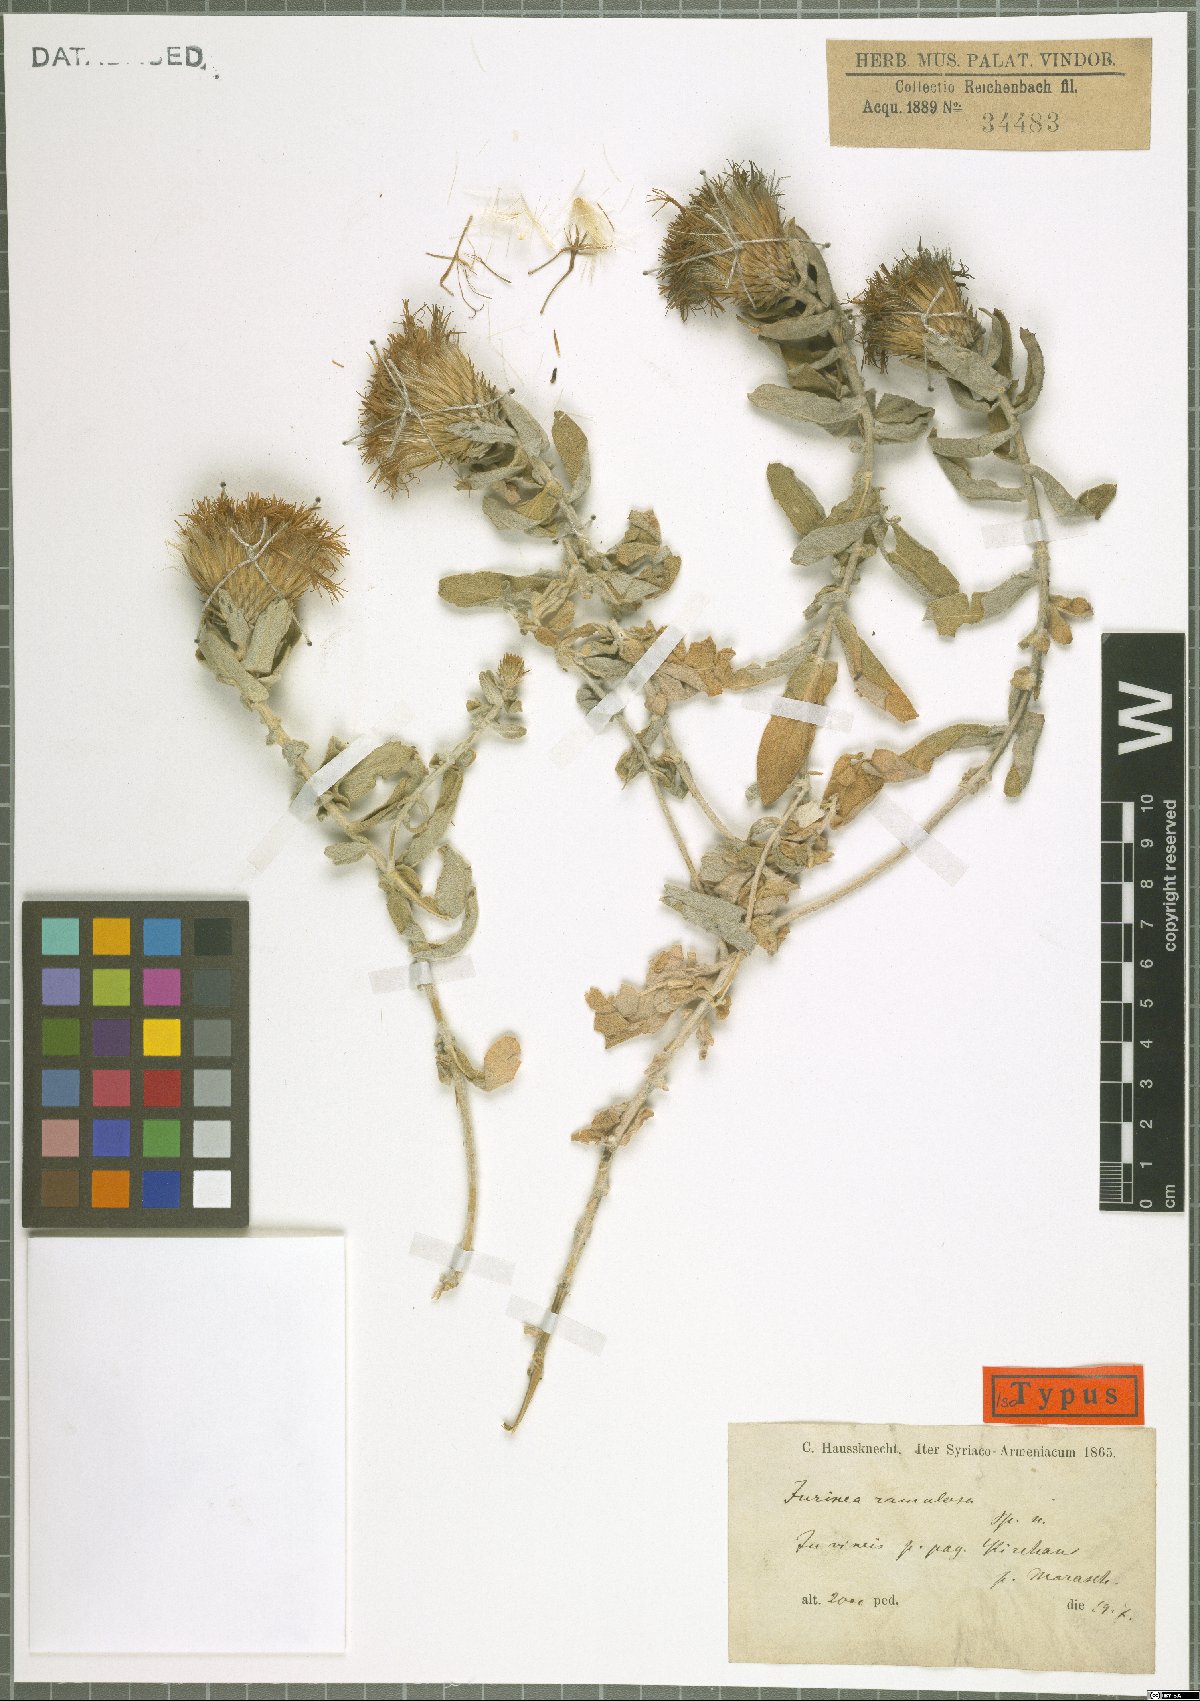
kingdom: Plantae
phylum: Tracheophyta
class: Magnoliopsida
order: Asterales
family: Asteraceae
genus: Jurinea
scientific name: Jurinea ramulosa
